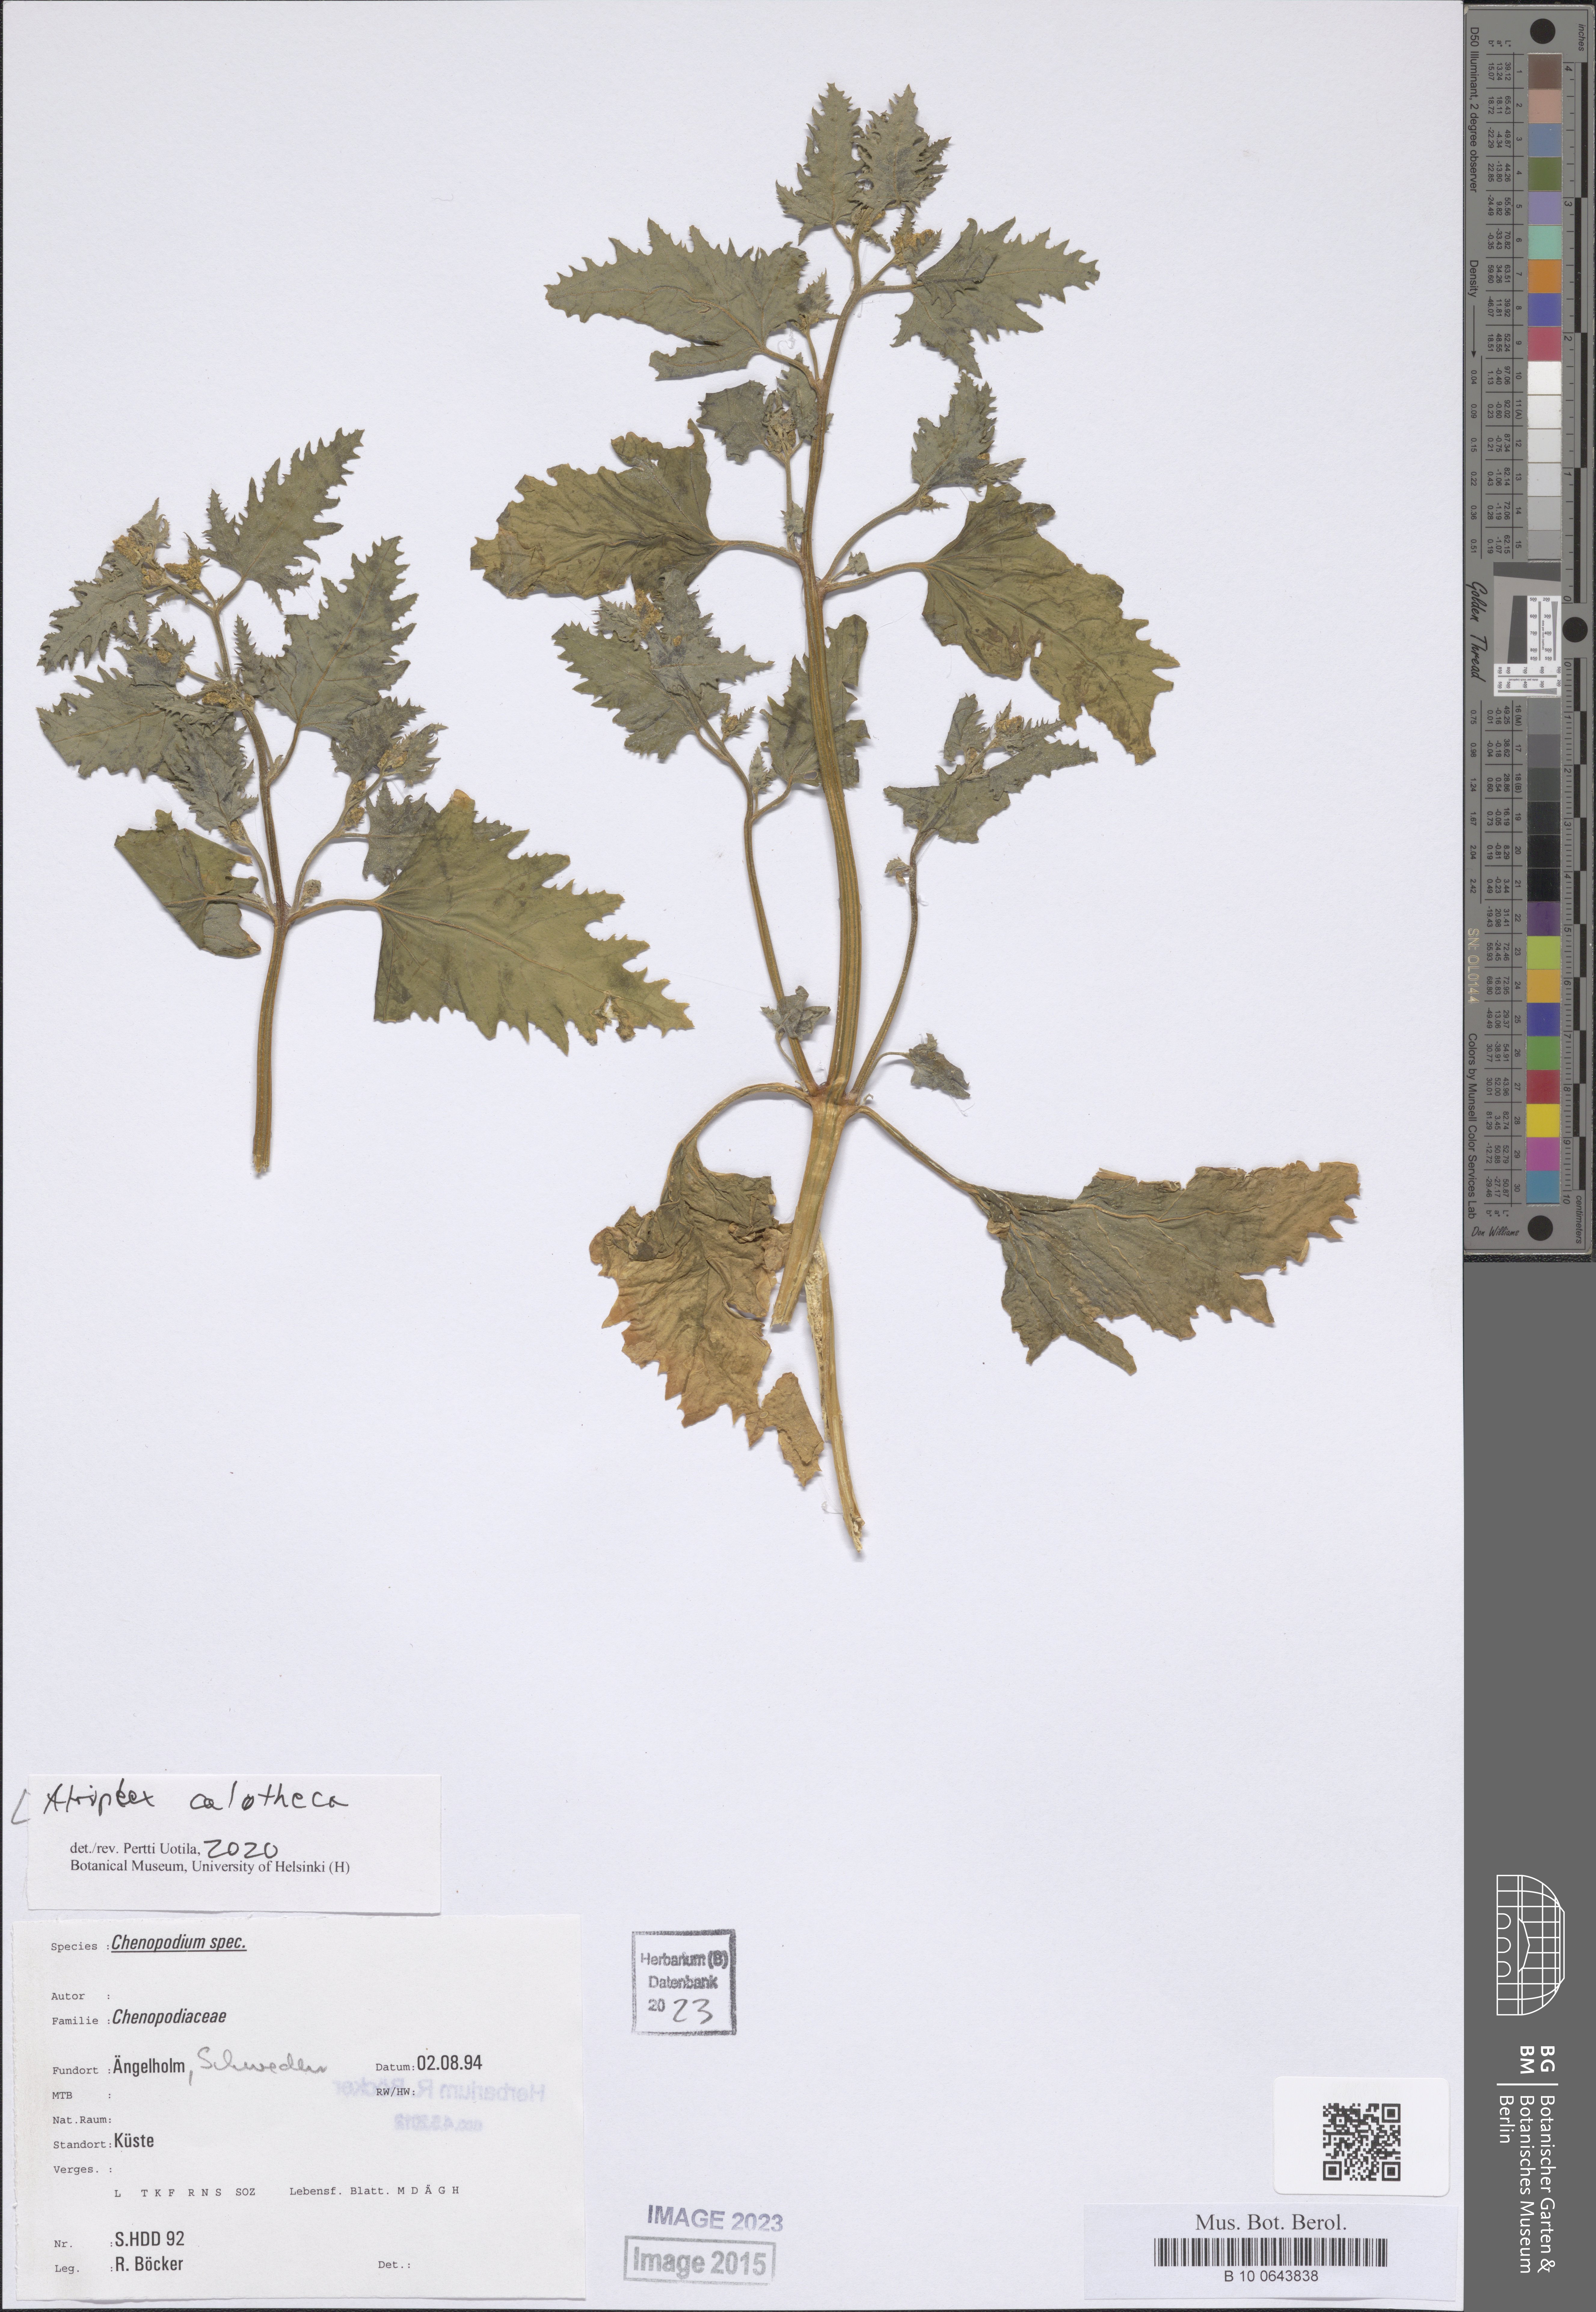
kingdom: Plantae
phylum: Tracheophyta
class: Magnoliopsida
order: Caryophyllales
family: Amaranthaceae
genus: Atriplex
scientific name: Atriplex calotheca
